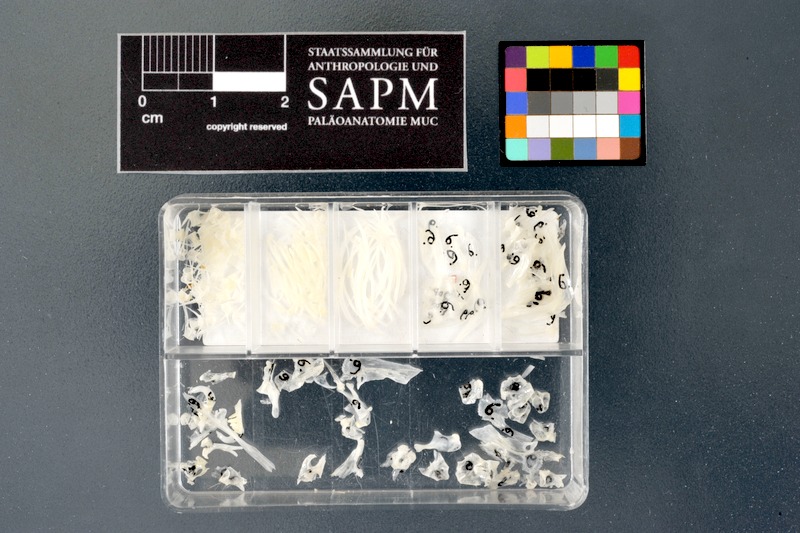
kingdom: Animalia
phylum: Chordata
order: Cypriniformes
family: Cyprinidae
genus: Gobio
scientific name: Gobio gobio
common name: Gudgeon
